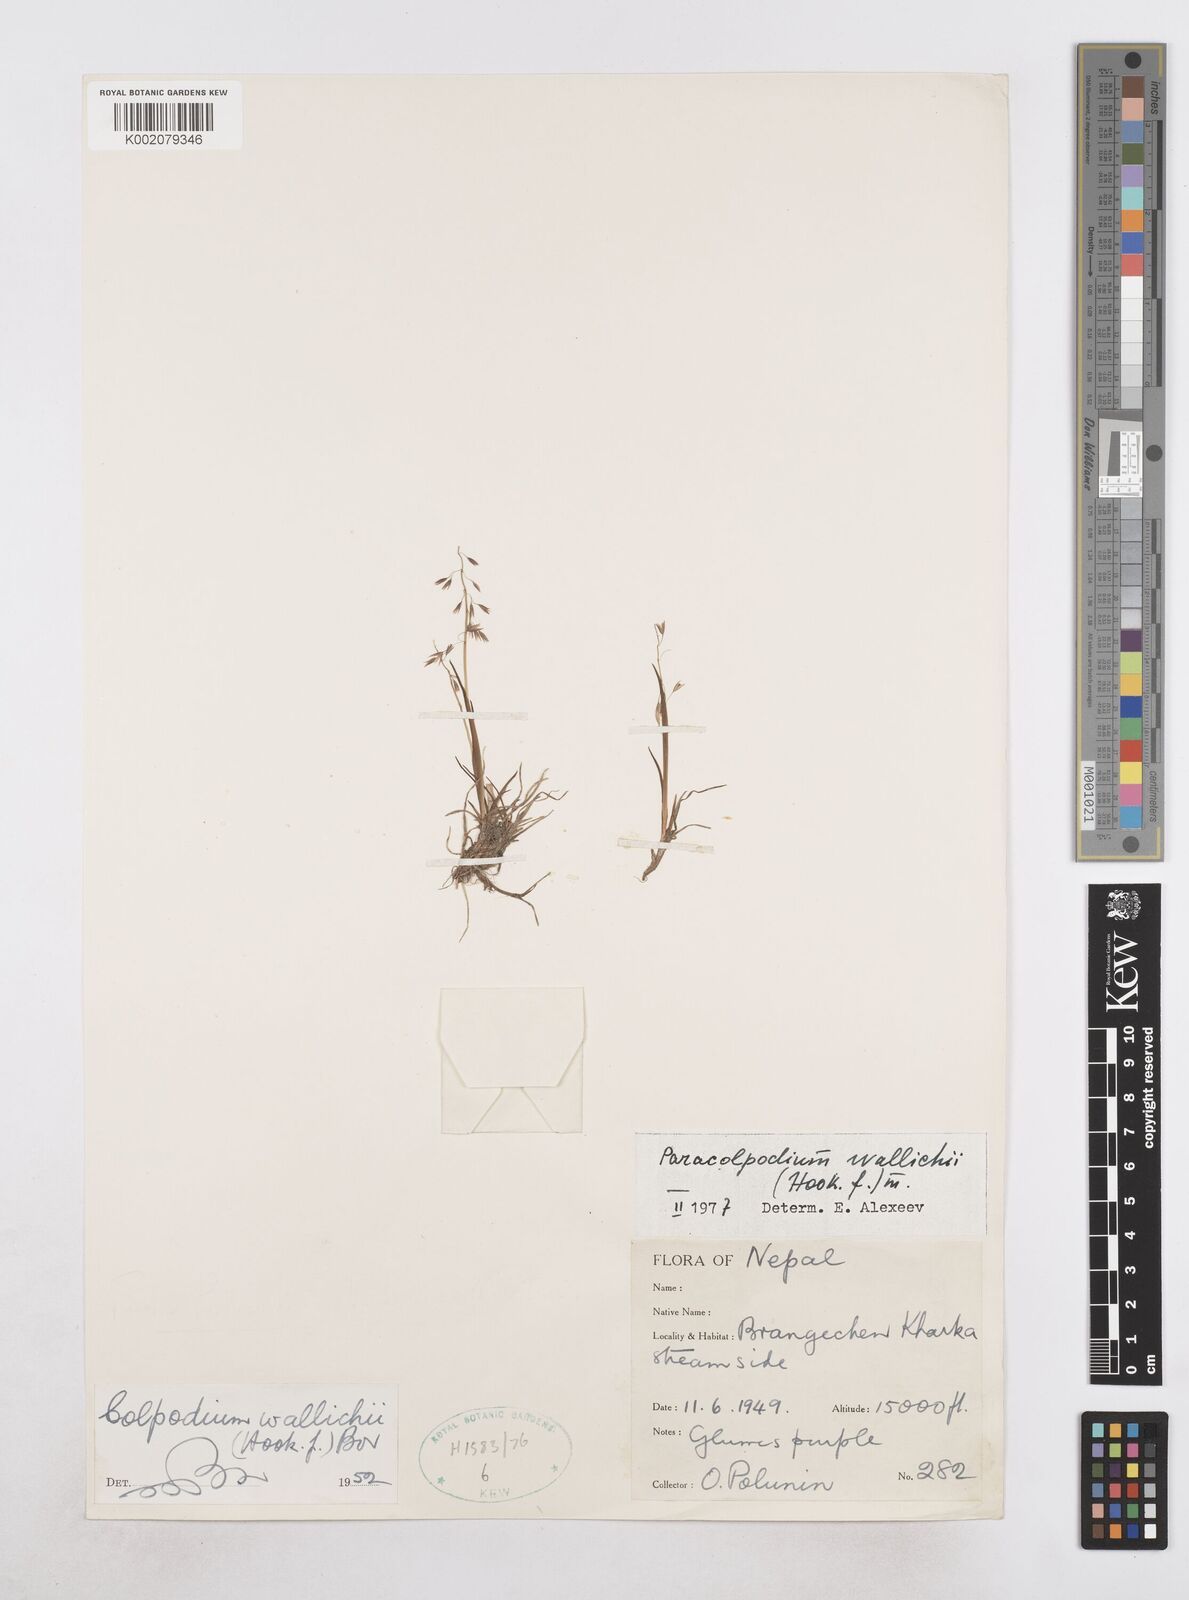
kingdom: Plantae
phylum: Tracheophyta
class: Liliopsida
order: Poales
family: Poaceae
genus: Paracolpodium
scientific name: Paracolpodium wallichii
